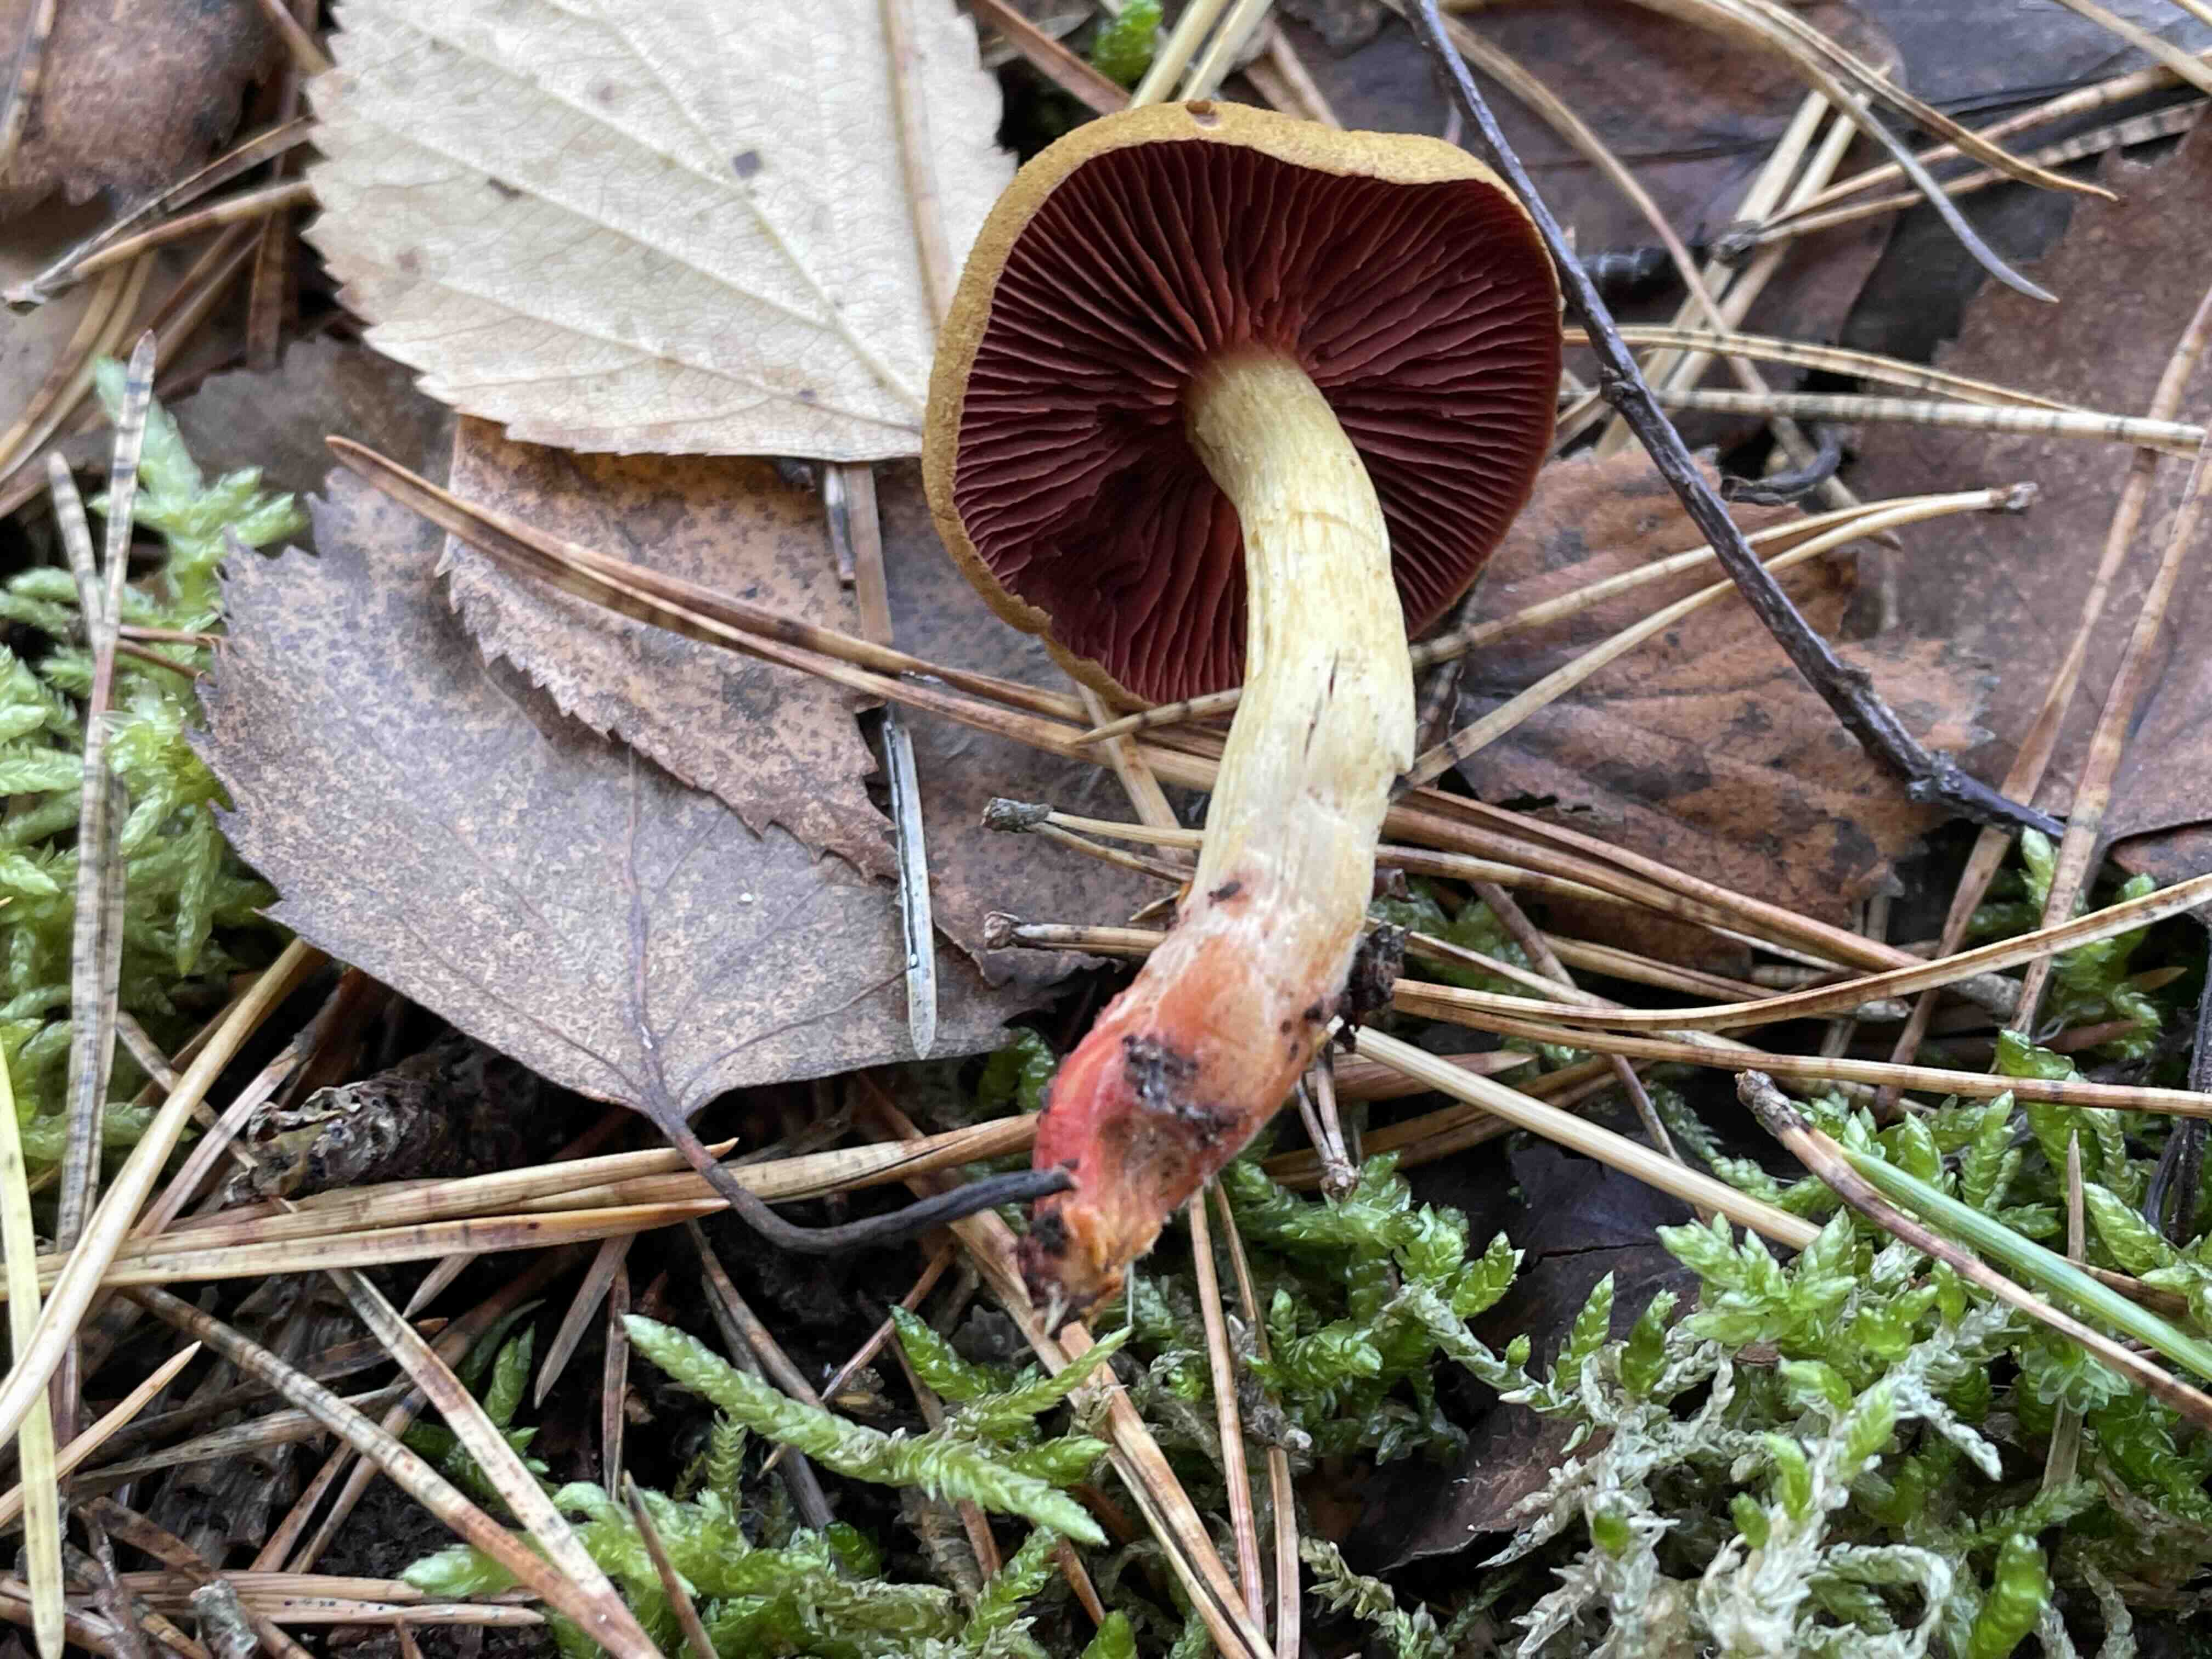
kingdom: Fungi
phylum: Basidiomycota
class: Agaricomycetes
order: Agaricales
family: Cortinariaceae
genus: Cortinarius
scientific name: Cortinarius
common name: cinnoberbladet slørhat
